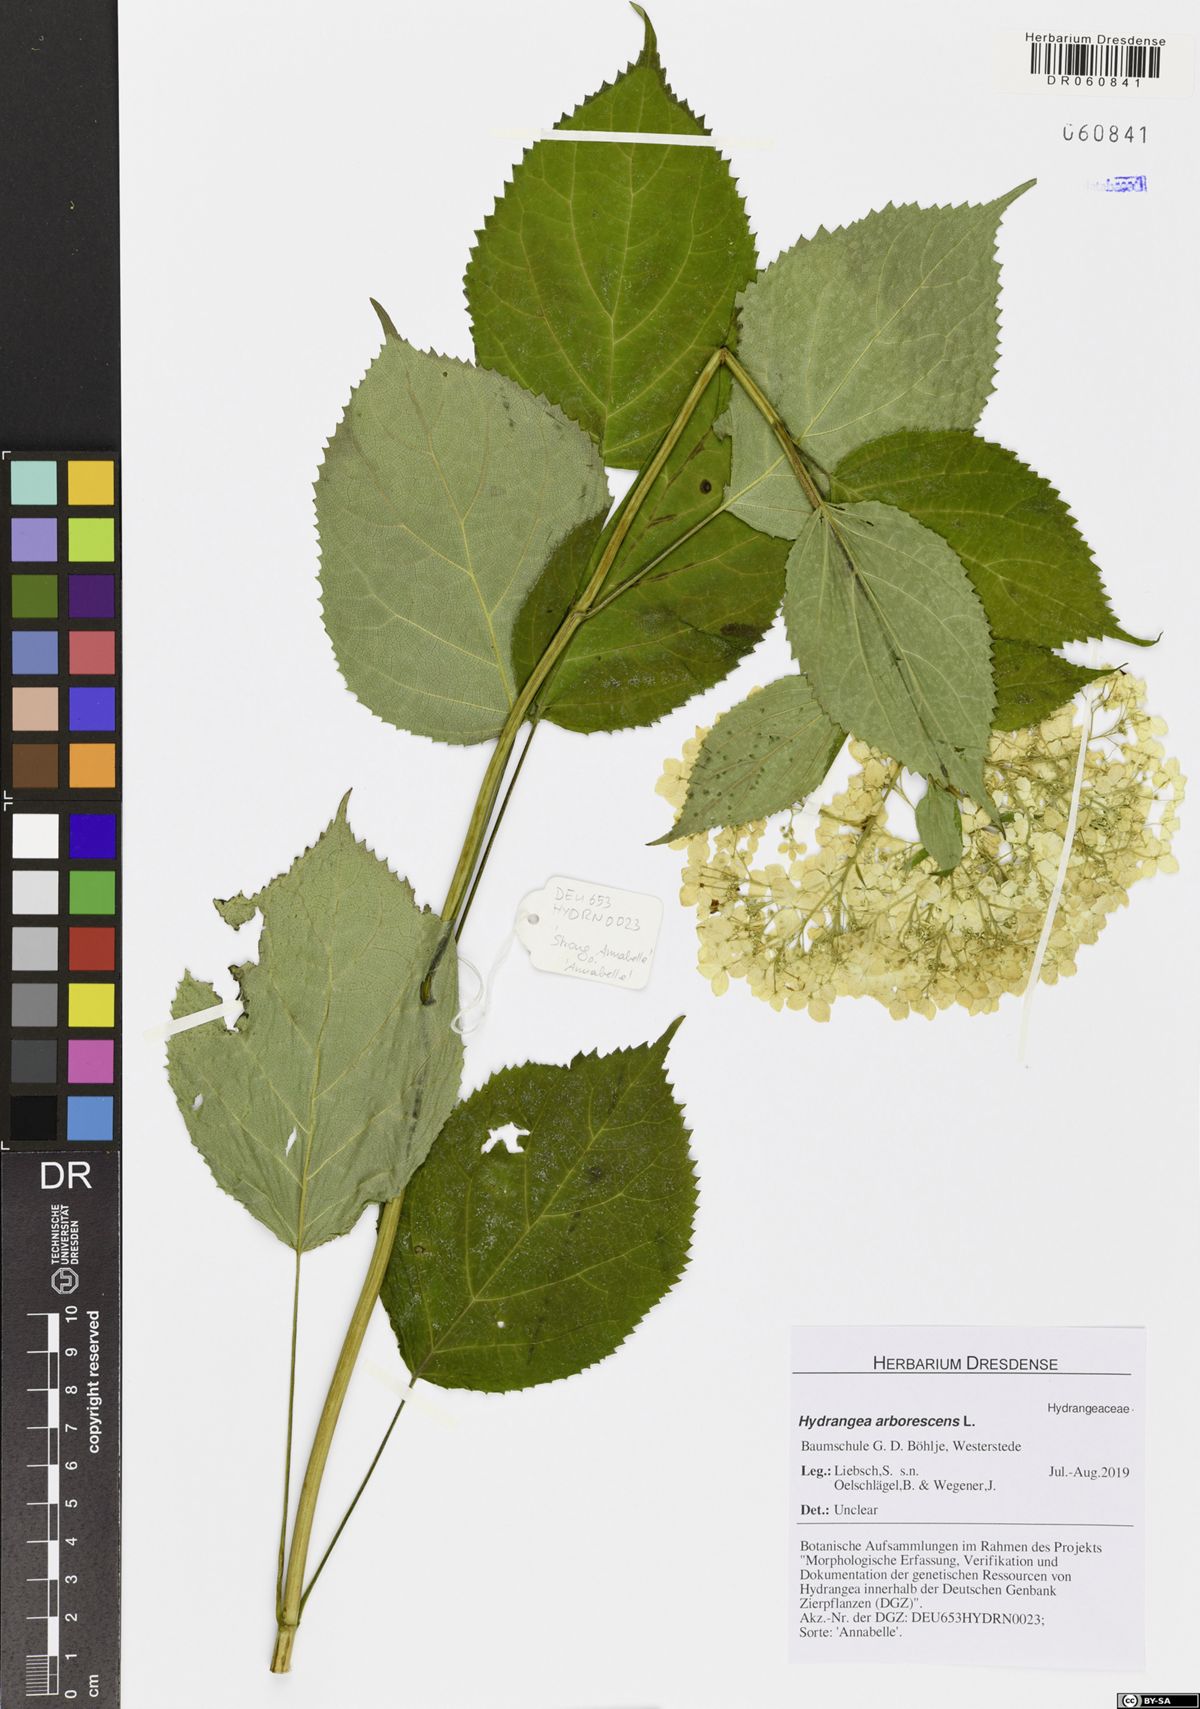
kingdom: Plantae
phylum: Tracheophyta
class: Magnoliopsida
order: Cornales
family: Hydrangeaceae
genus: Hydrangea
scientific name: Hydrangea arborescens
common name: Sevenbark
